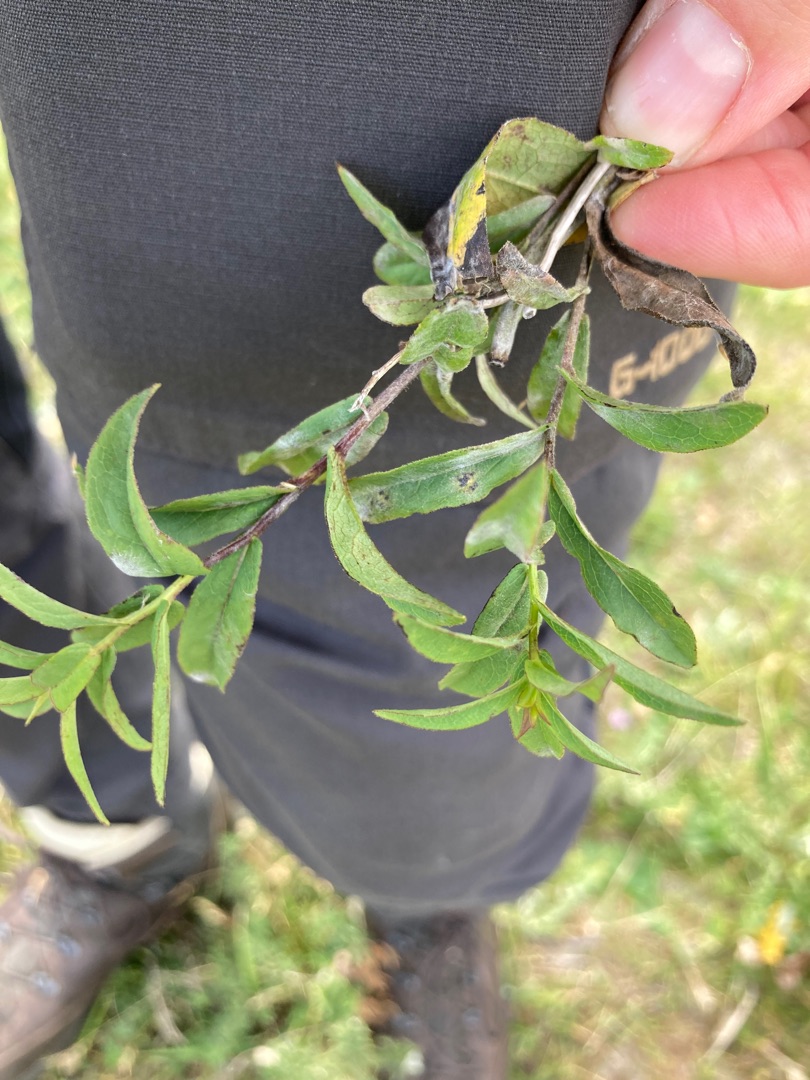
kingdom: Plantae
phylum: Tracheophyta
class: Magnoliopsida
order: Asterales
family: Asteraceae
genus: Pentanema
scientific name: Pentanema salicinum
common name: Pile-alant
